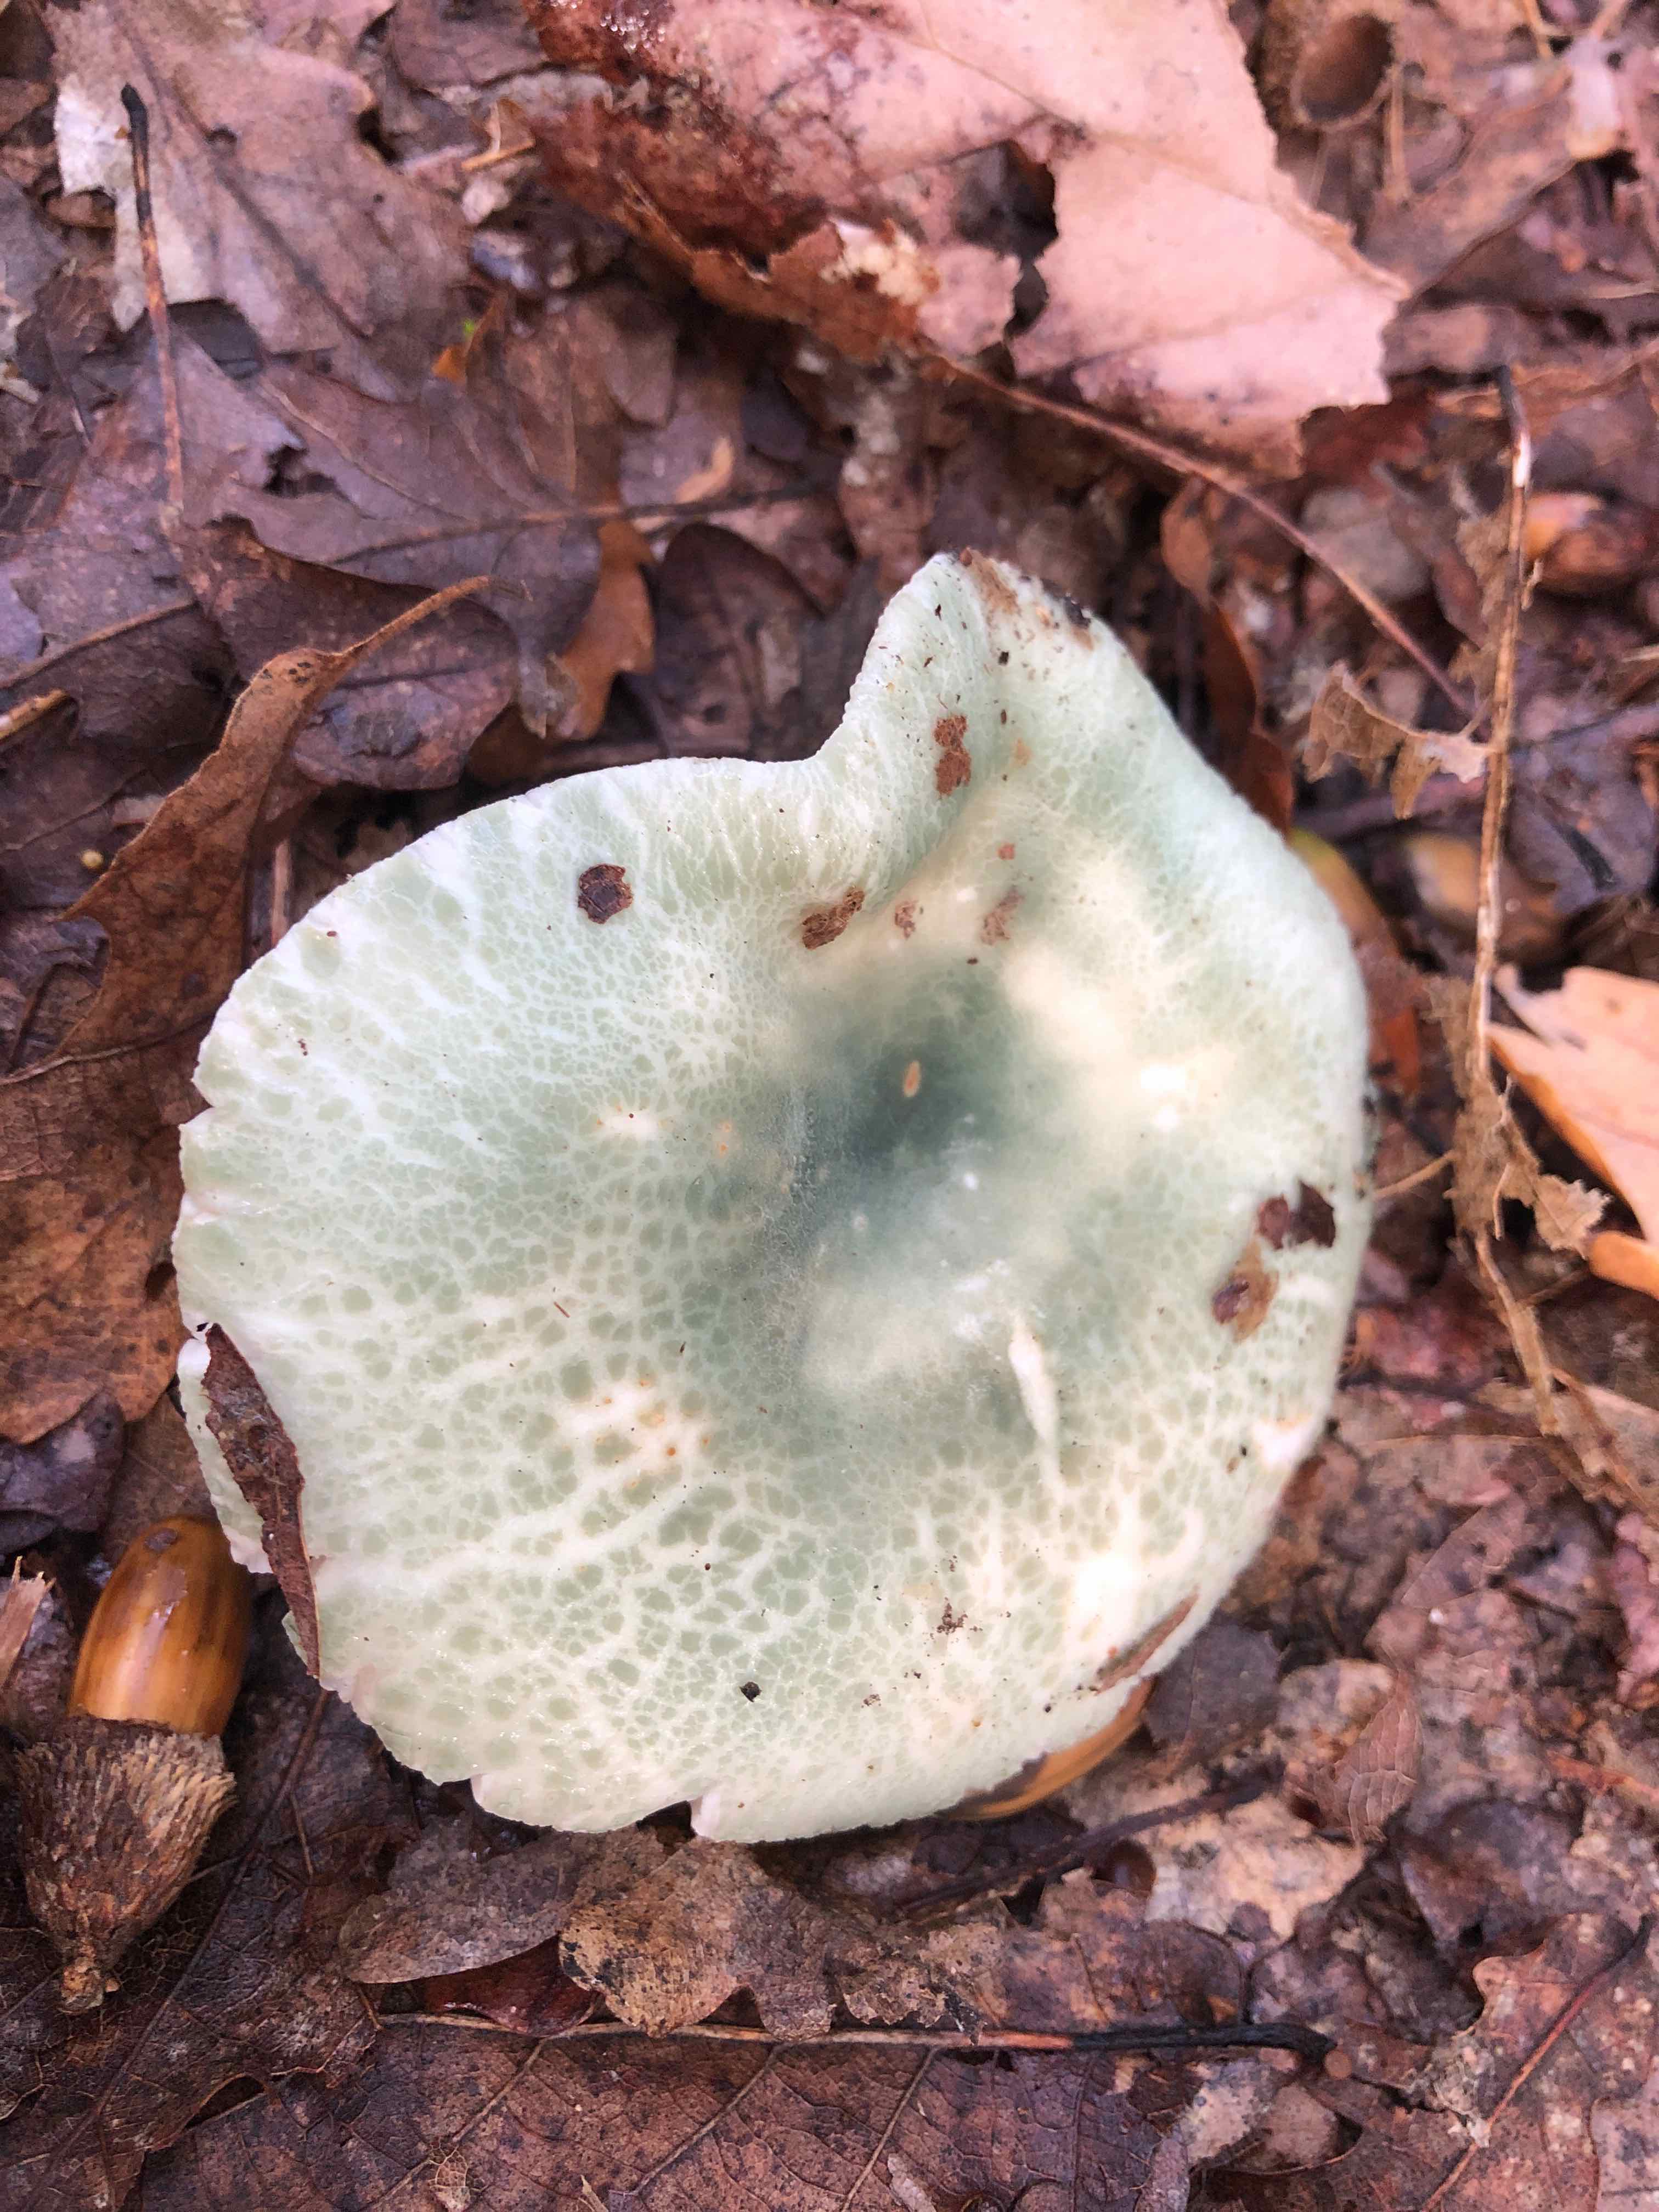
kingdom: Fungi
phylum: Basidiomycota
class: Agaricomycetes
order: Russulales
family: Russulaceae
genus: Russula
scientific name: Russula virescens
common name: spanskgrøn skørhat
